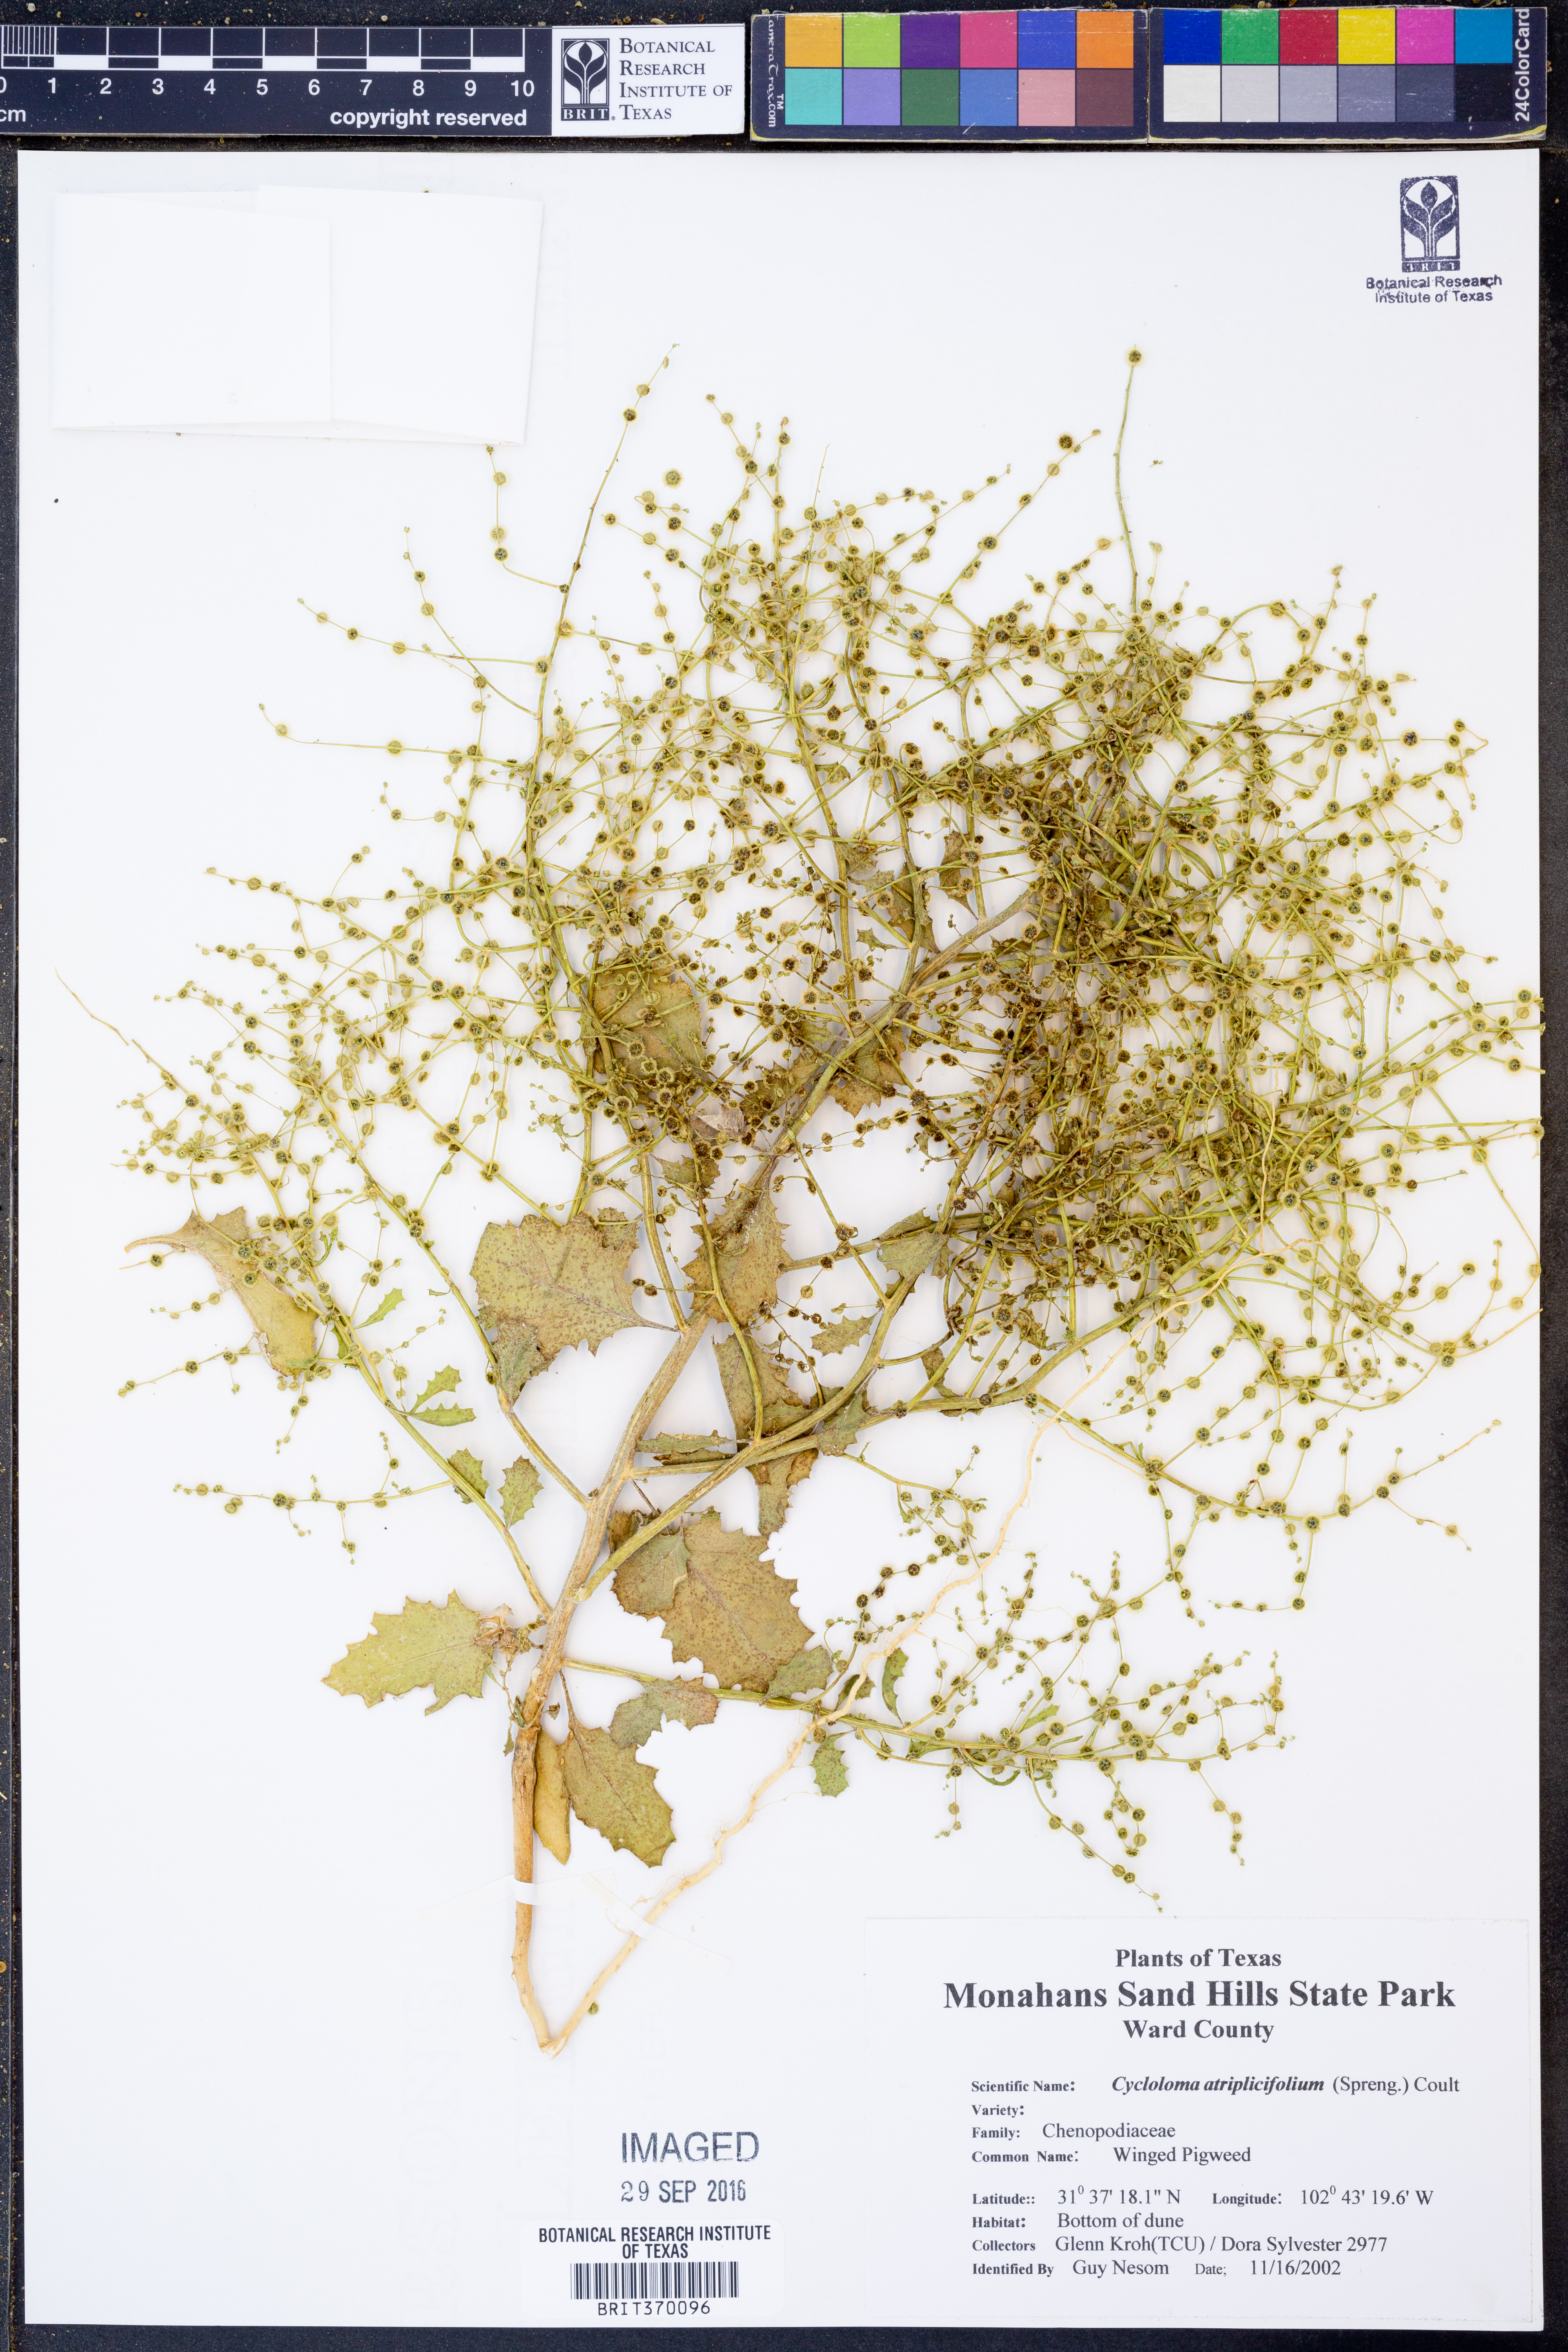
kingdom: Plantae
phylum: Tracheophyta
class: Magnoliopsida
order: Caryophyllales
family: Amaranthaceae
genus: Dysphania
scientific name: Dysphania atriplicifolia
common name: Plains tumbleweed
